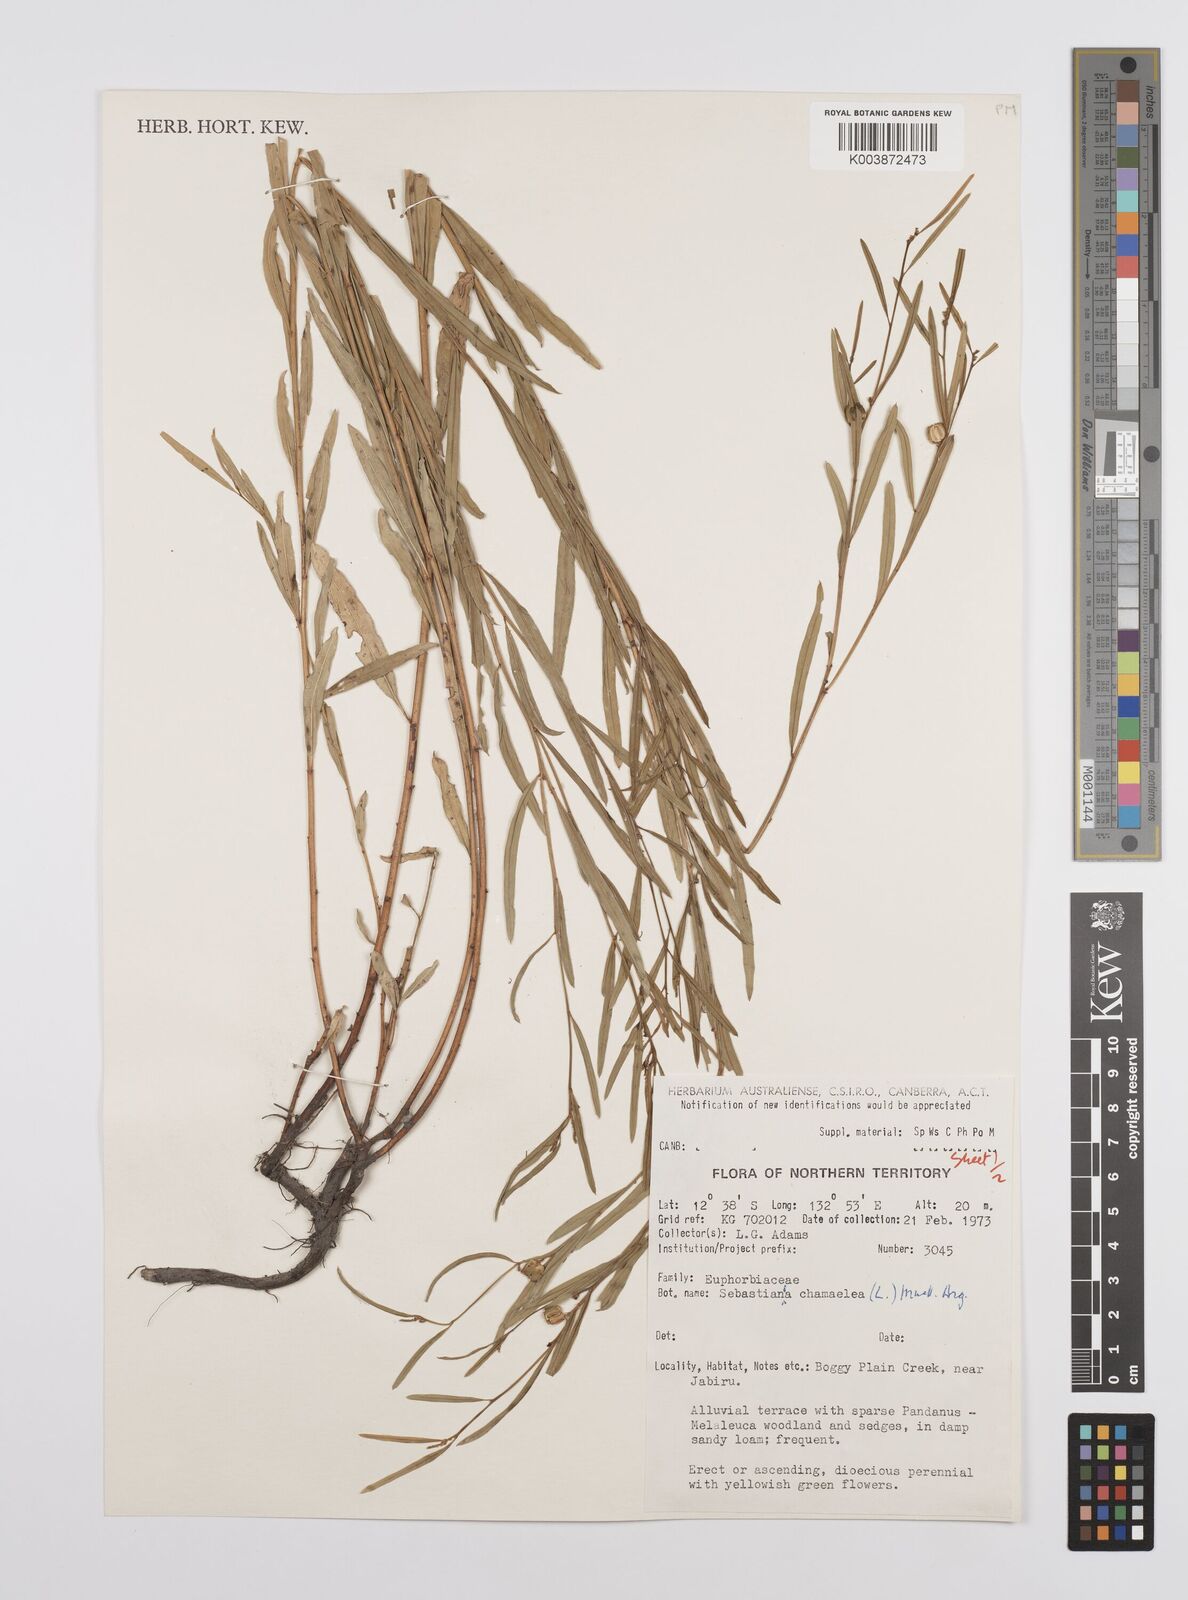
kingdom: Plantae
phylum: Tracheophyta
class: Magnoliopsida
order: Malpighiales
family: Euphorbiaceae
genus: Microstachys
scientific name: Microstachys chamaelea
